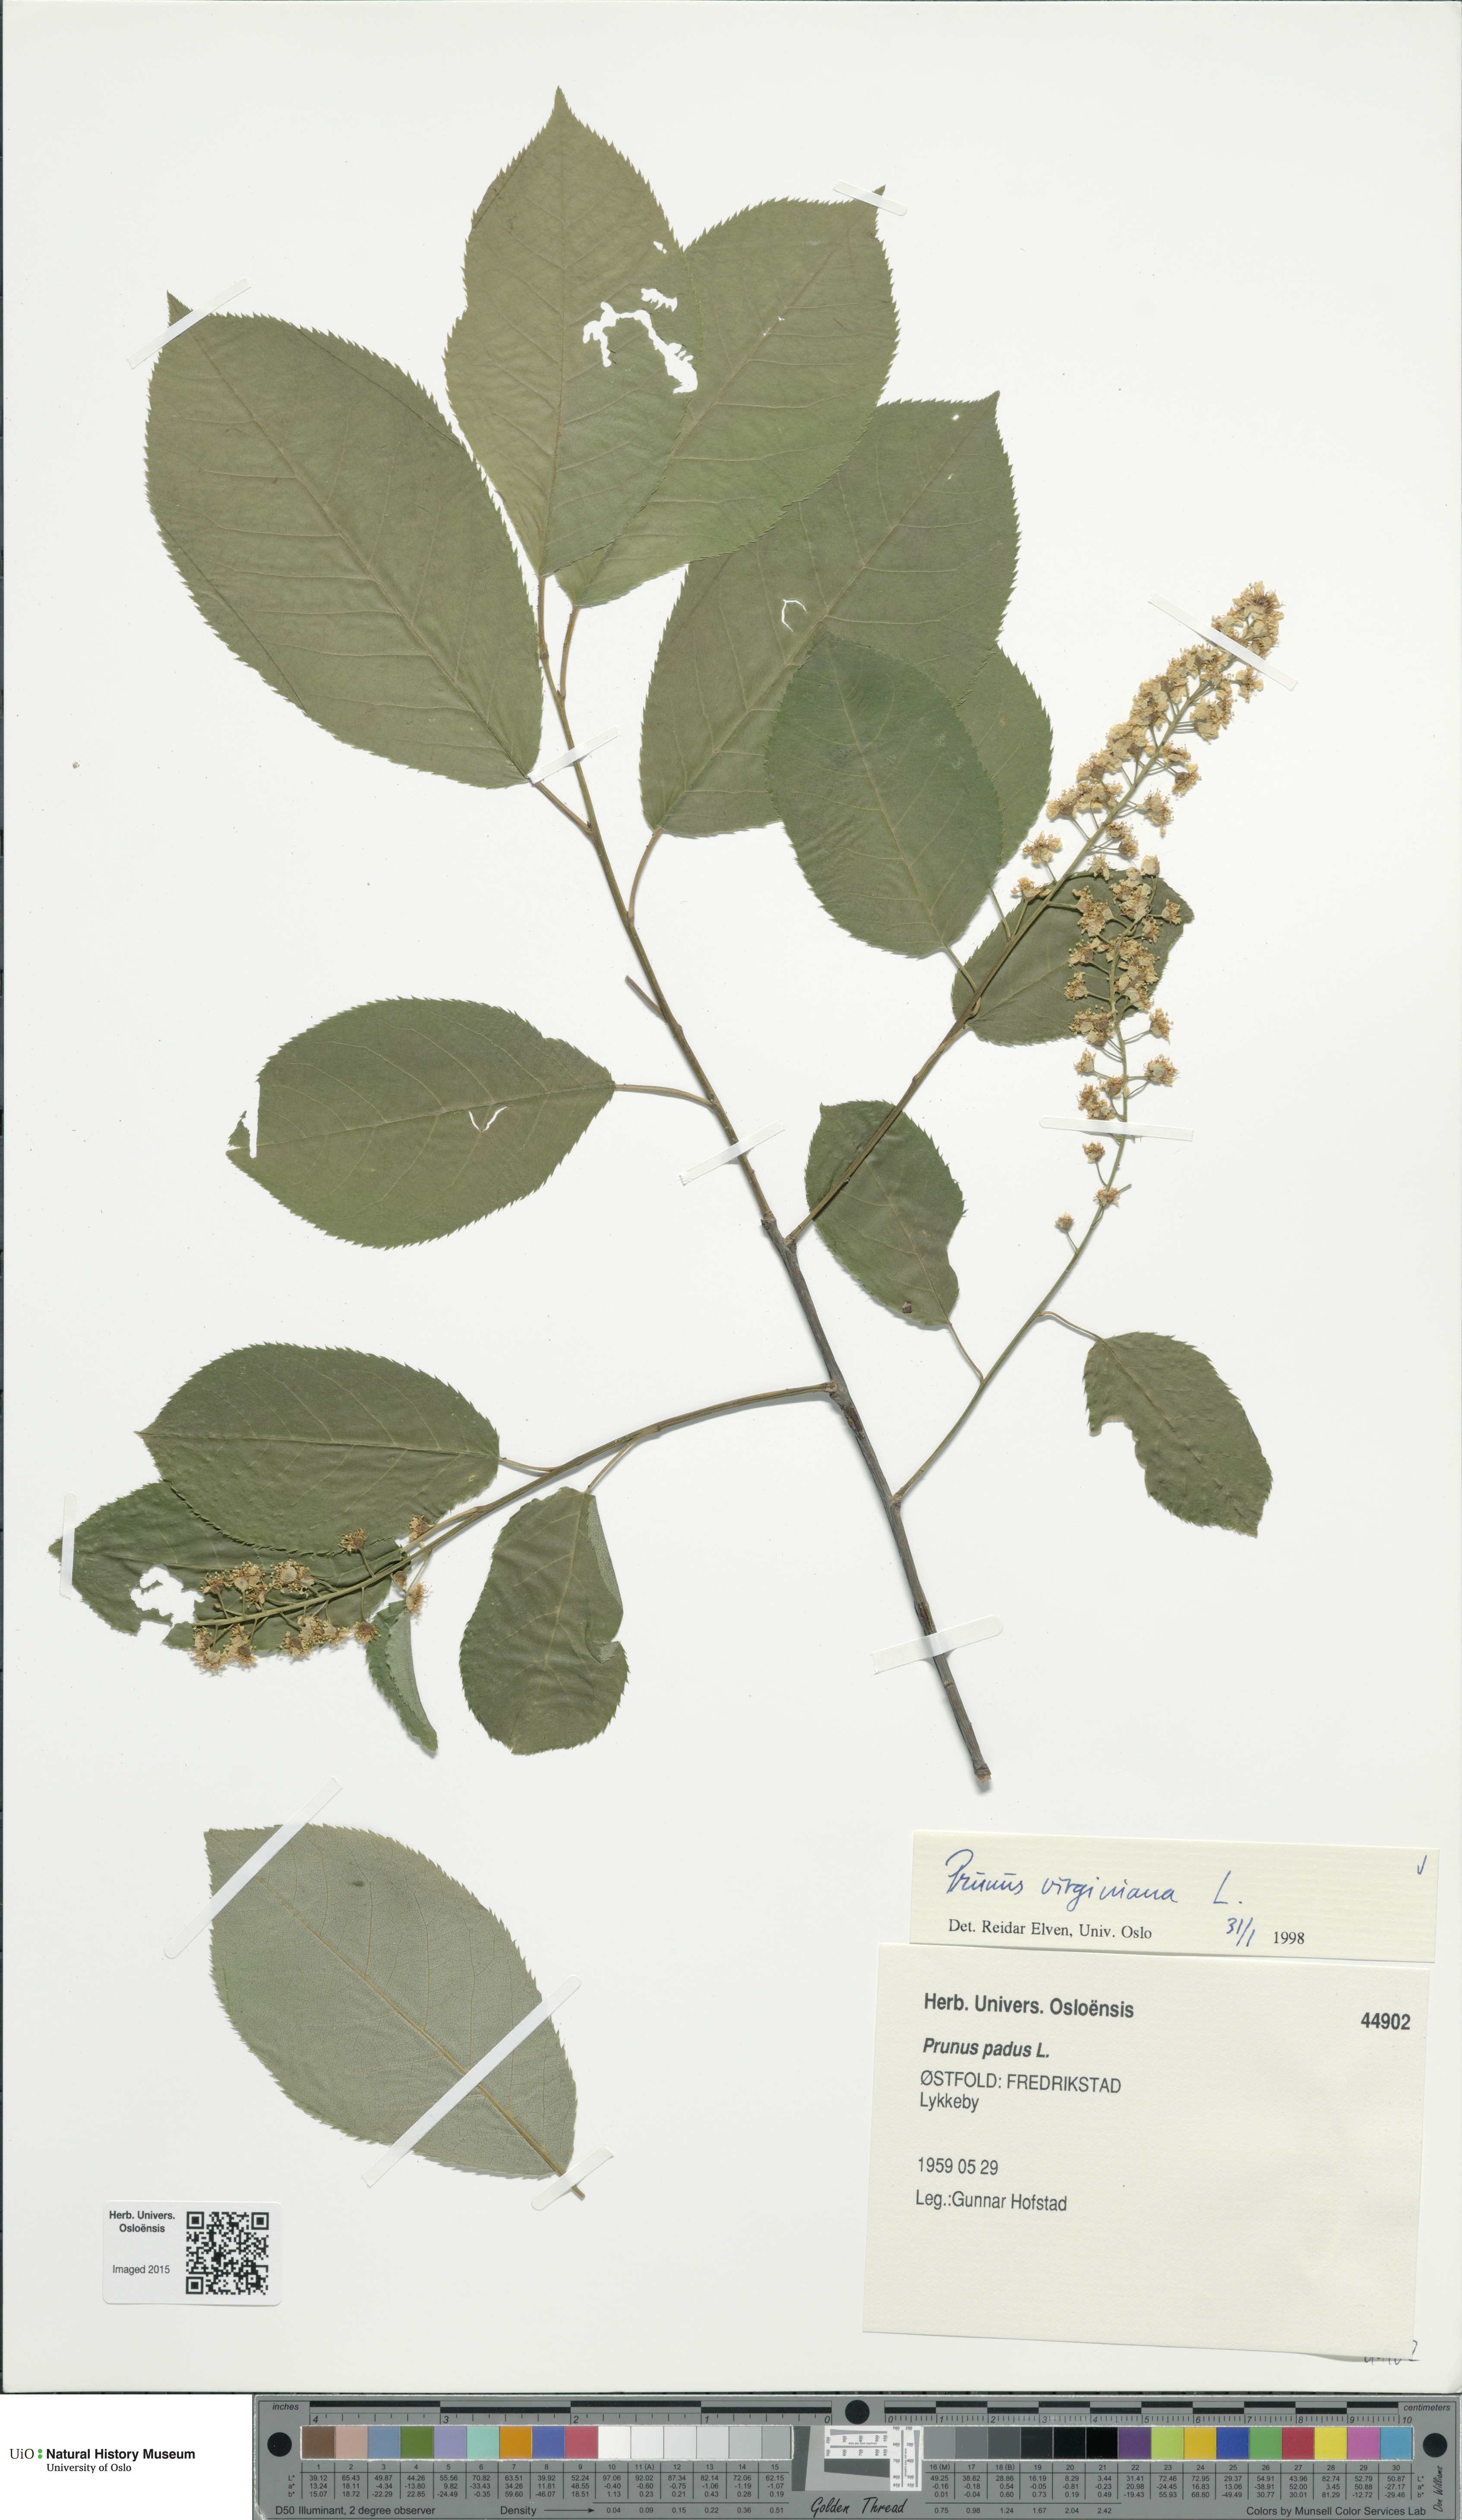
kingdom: Plantae
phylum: Tracheophyta
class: Magnoliopsida
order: Rosales
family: Rosaceae
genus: Prunus
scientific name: Prunus virginiana
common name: Chokecherry
